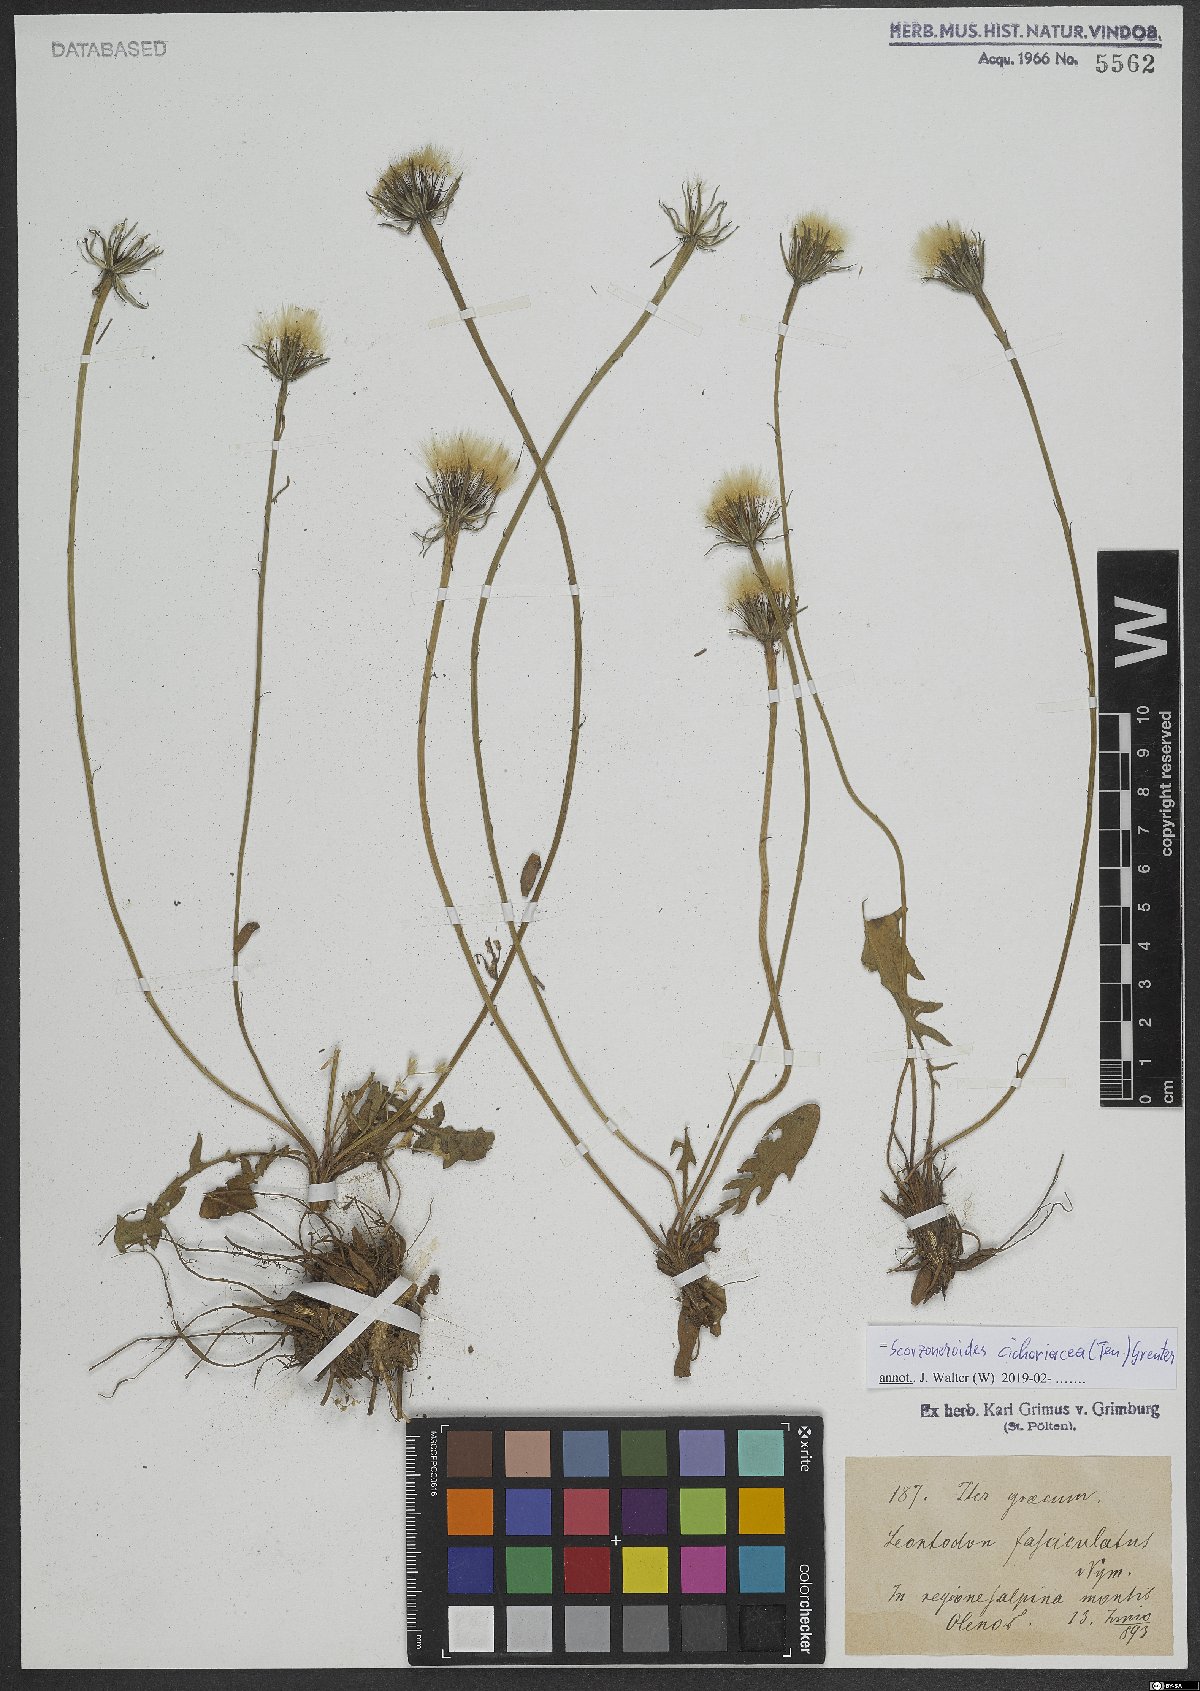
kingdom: Plantae
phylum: Tracheophyta
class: Magnoliopsida
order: Asterales
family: Asteraceae
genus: Scorzoneroides
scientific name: Scorzoneroides cichoriacea
